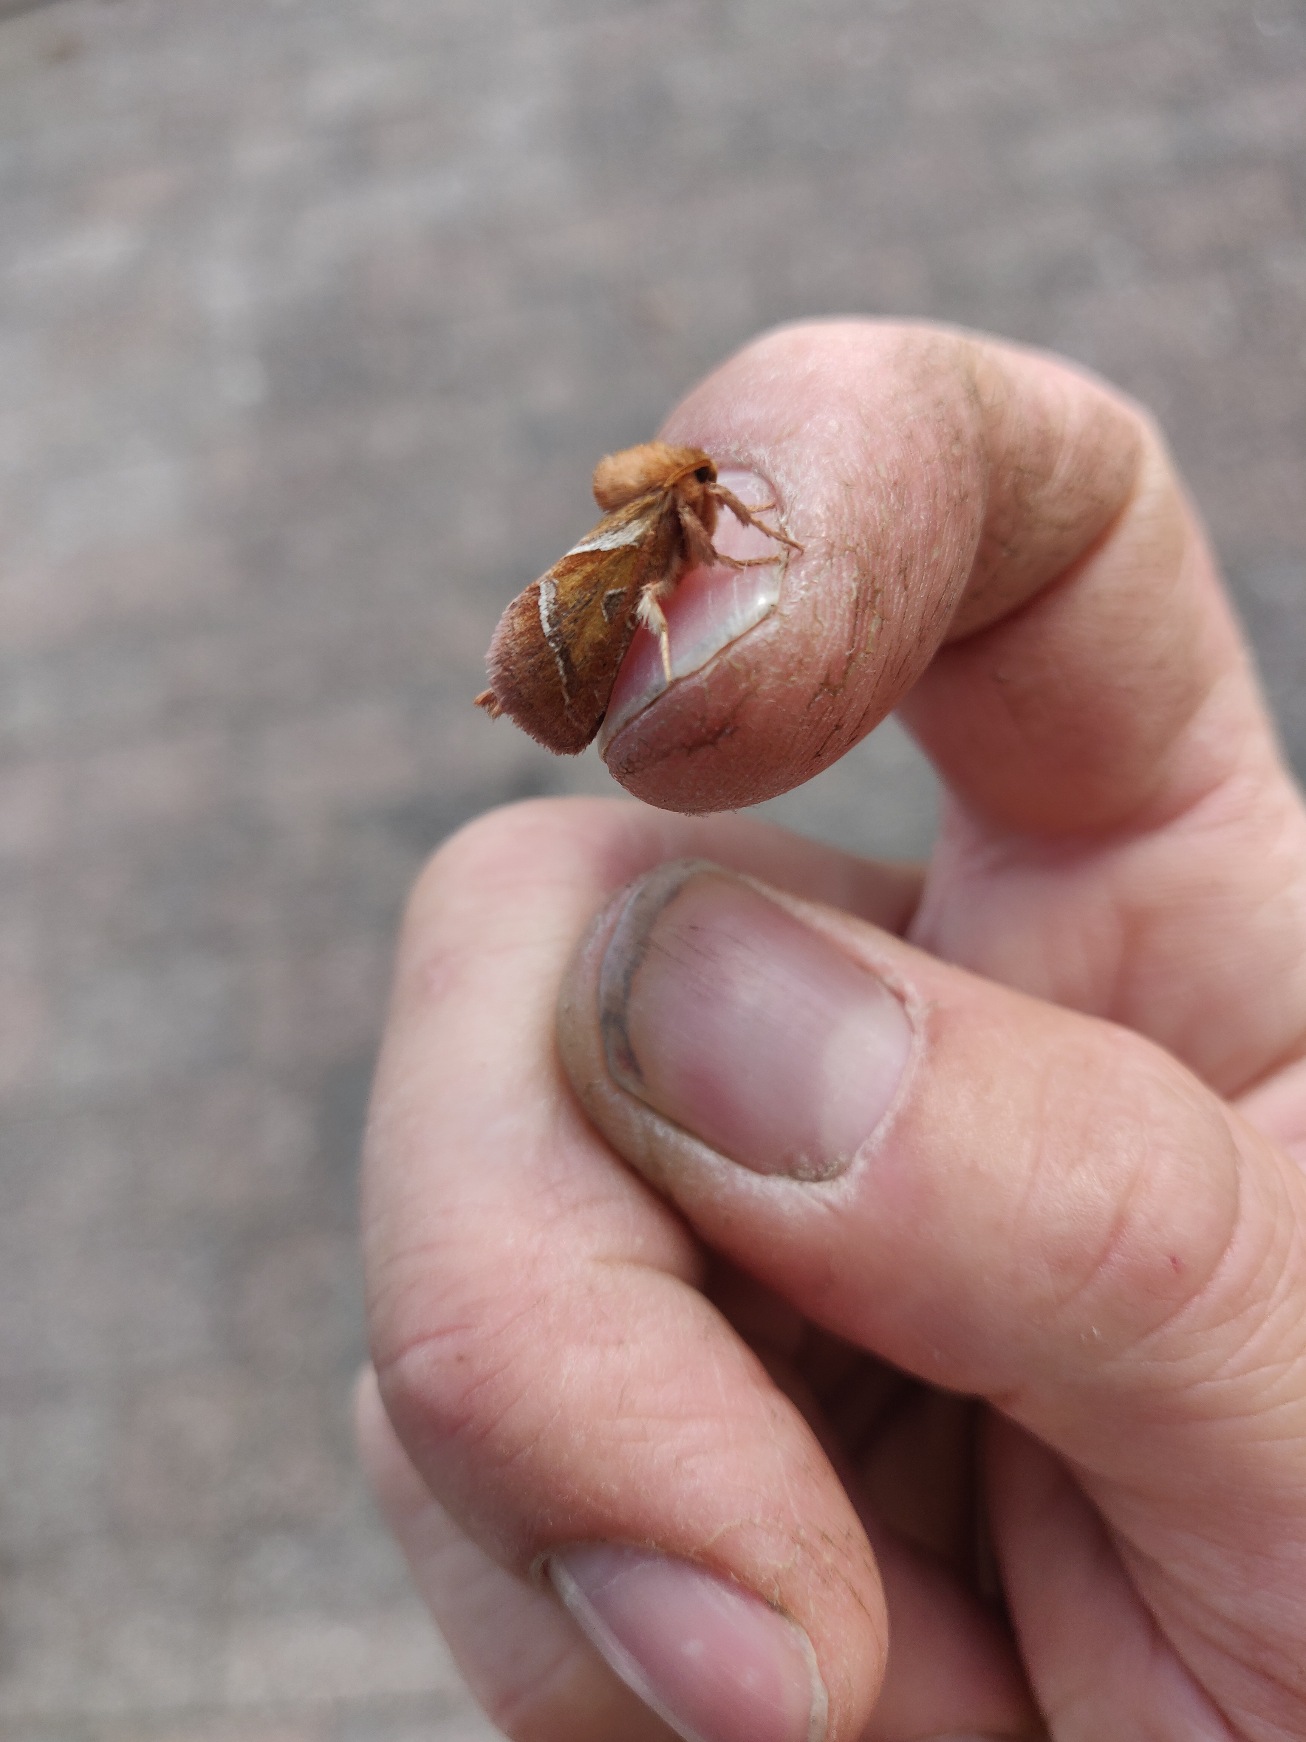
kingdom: Animalia
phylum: Arthropoda
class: Insecta
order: Lepidoptera
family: Hepialidae
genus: Triodia
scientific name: Triodia sylvina
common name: Skræpperodæder
